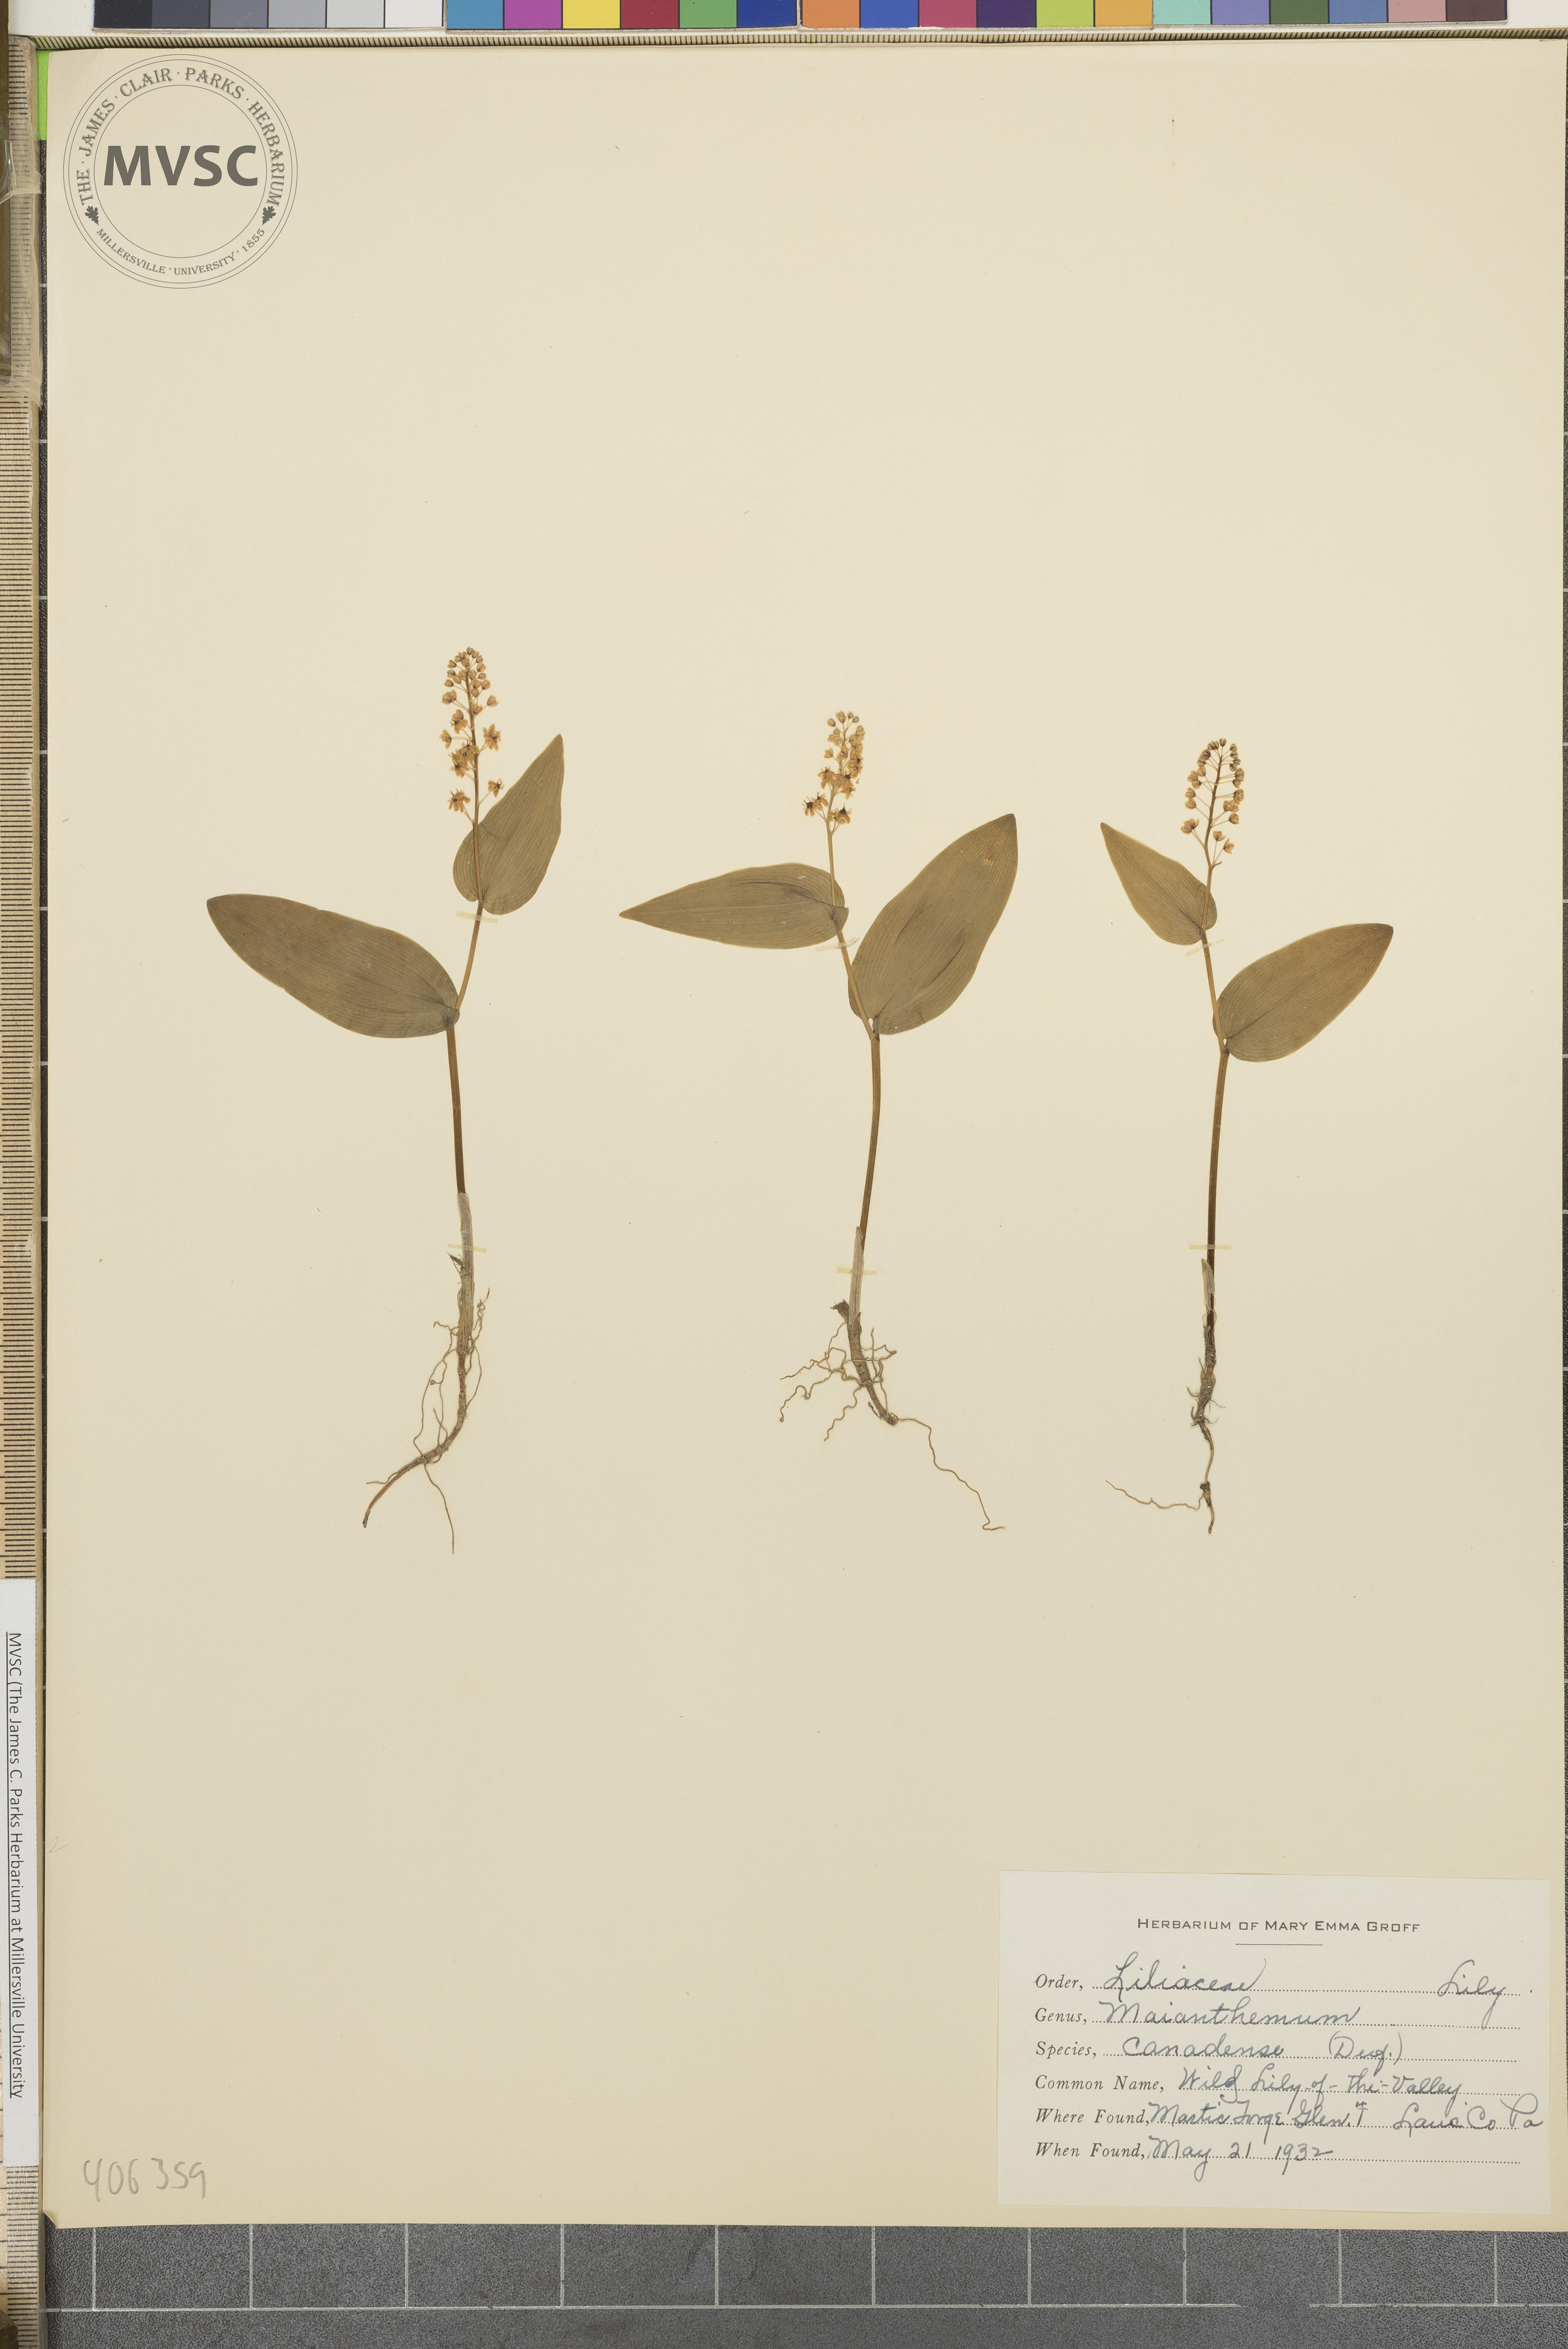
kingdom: Plantae
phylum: Tracheophyta
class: Liliopsida
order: Asparagales
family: Asparagaceae
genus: Maianthemum
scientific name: Maianthemum canadense
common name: Wild Lily-of-the-Valley
